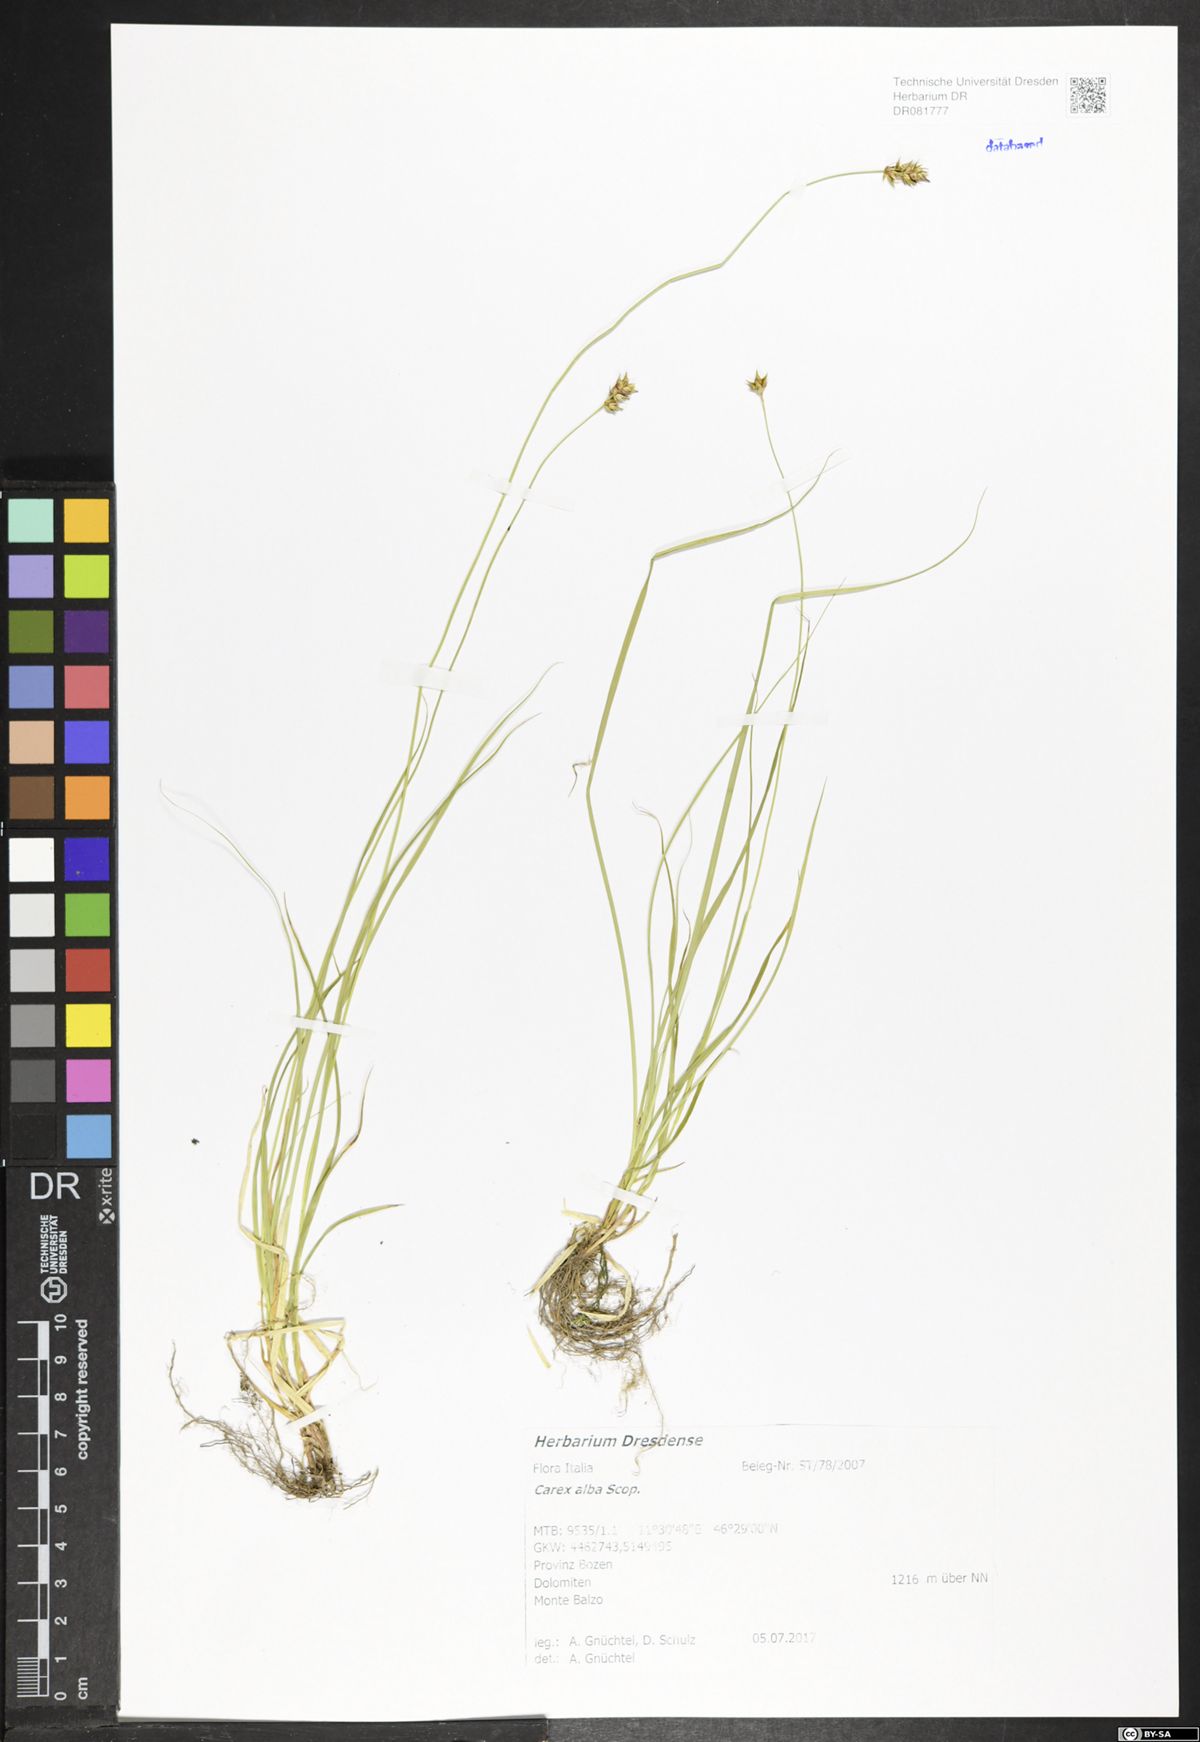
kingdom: Plantae
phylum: Tracheophyta
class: Liliopsida
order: Poales
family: Cyperaceae
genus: Carex
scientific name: Carex alba
